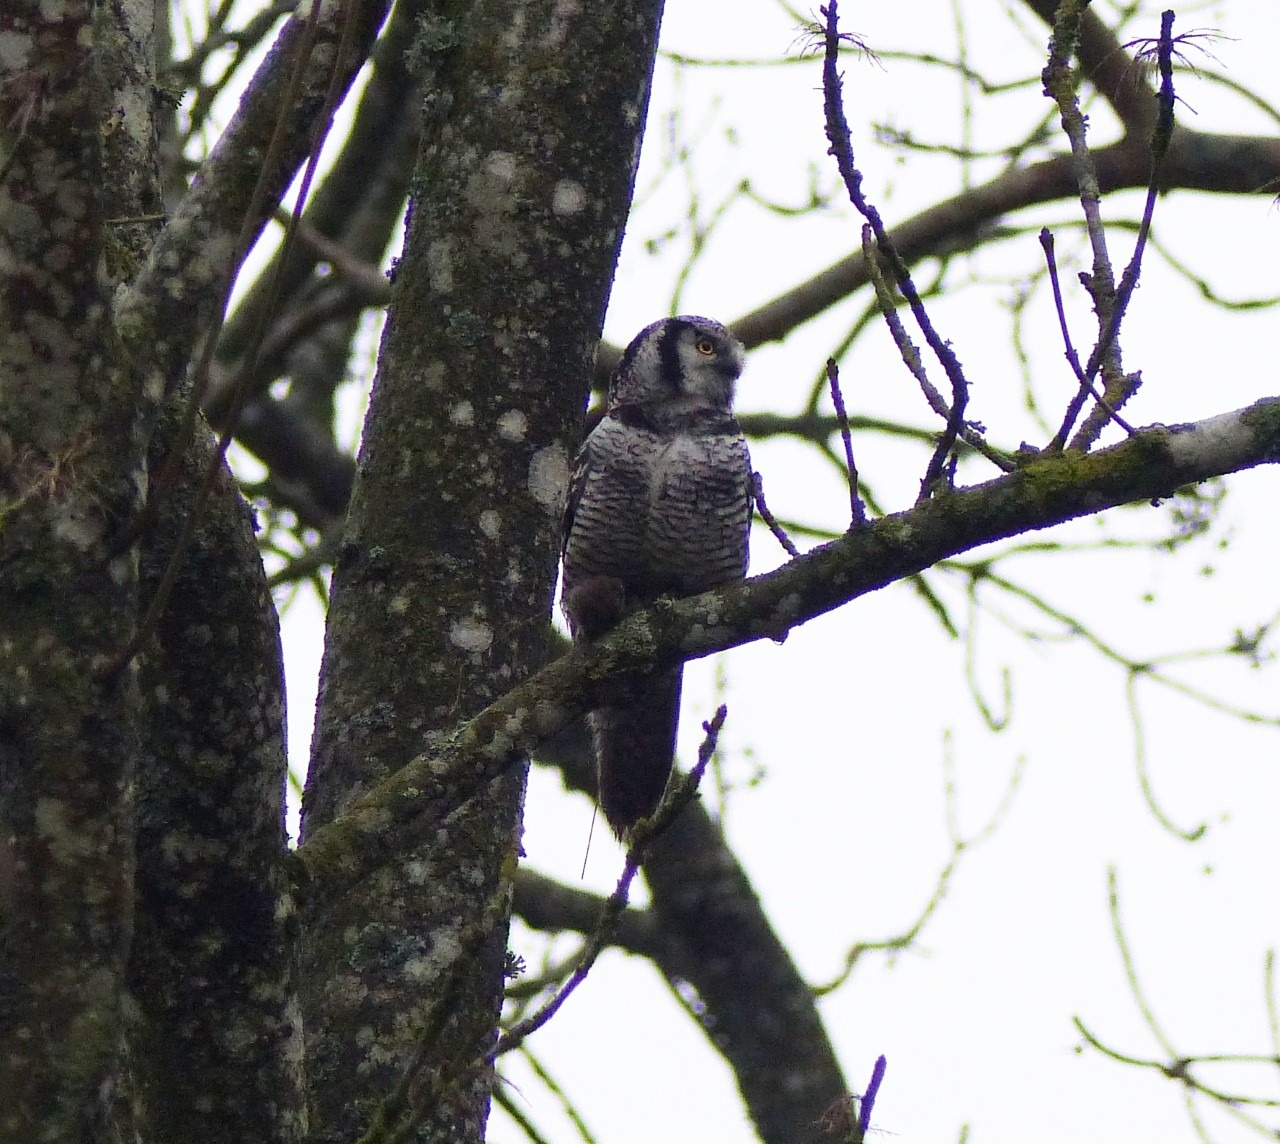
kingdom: Animalia
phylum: Chordata
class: Aves
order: Strigiformes
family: Strigidae
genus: Surnia
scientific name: Surnia ulula
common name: Høgeugle
